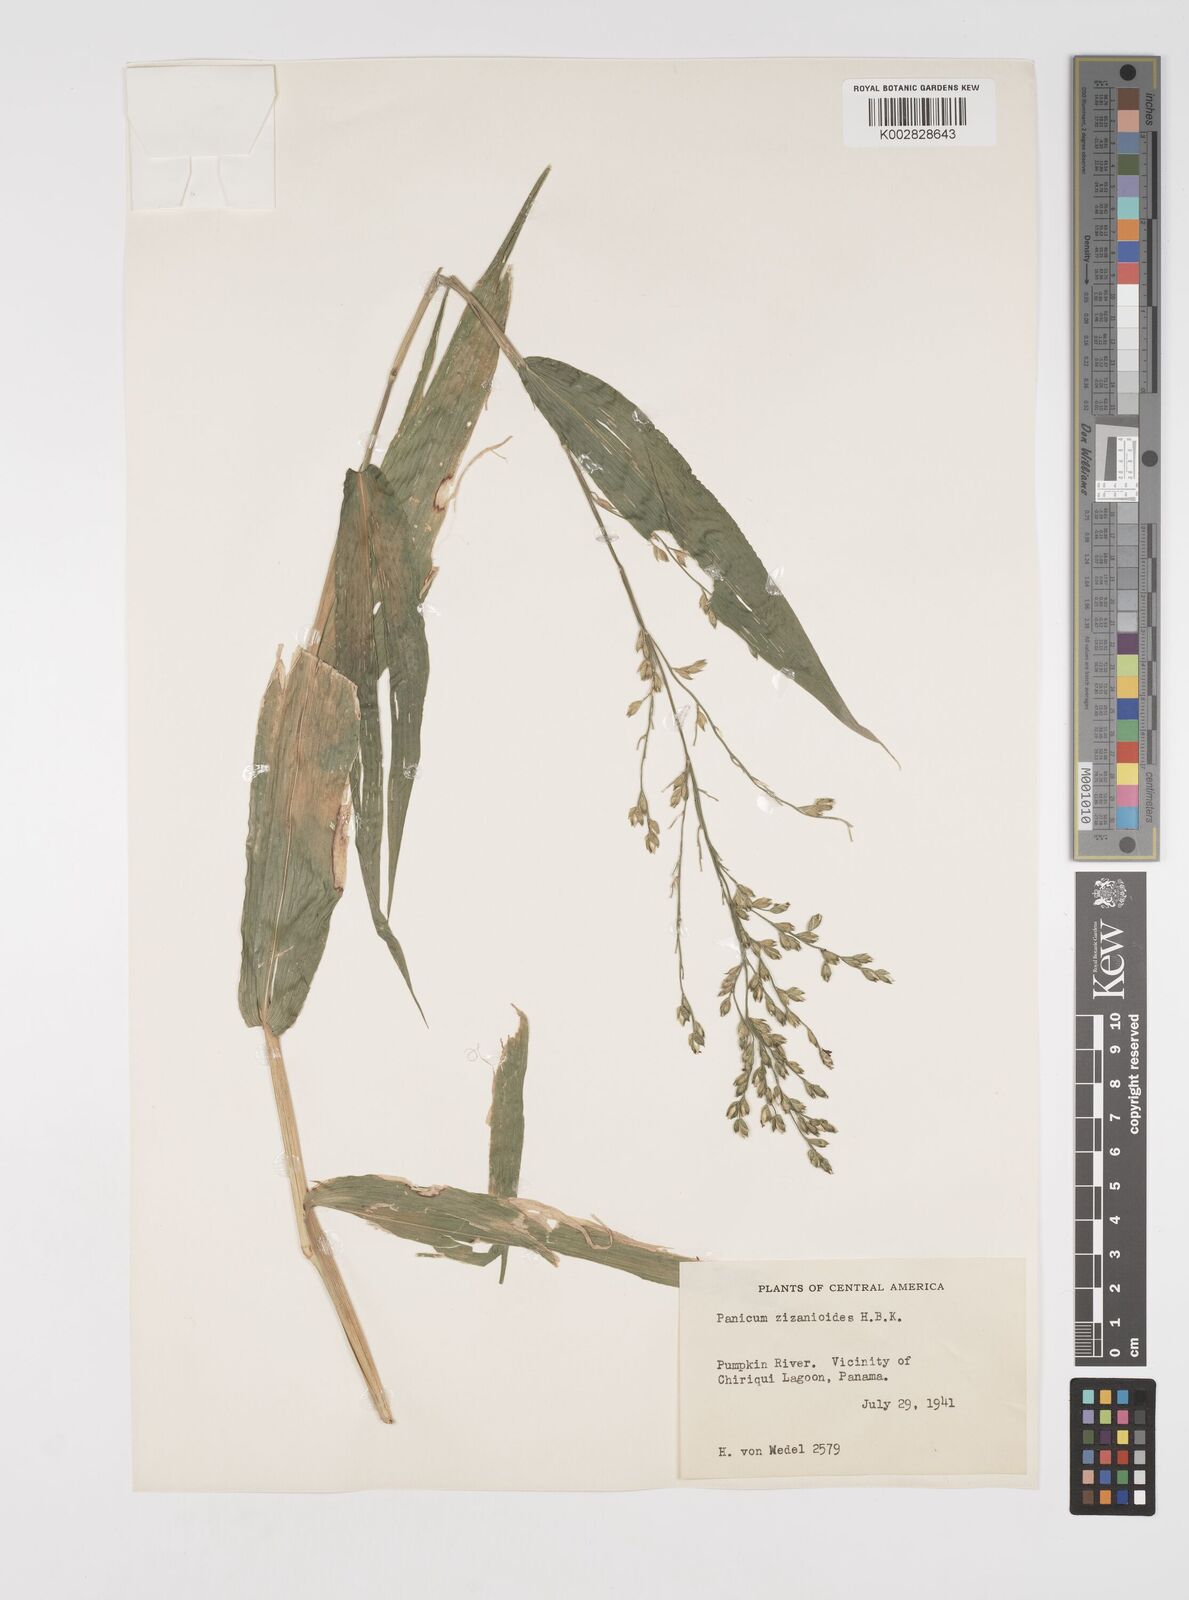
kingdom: Plantae
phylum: Tracheophyta
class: Liliopsida
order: Poales
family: Poaceae
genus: Acroceras
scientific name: Acroceras zizanioides
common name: Oat grass
